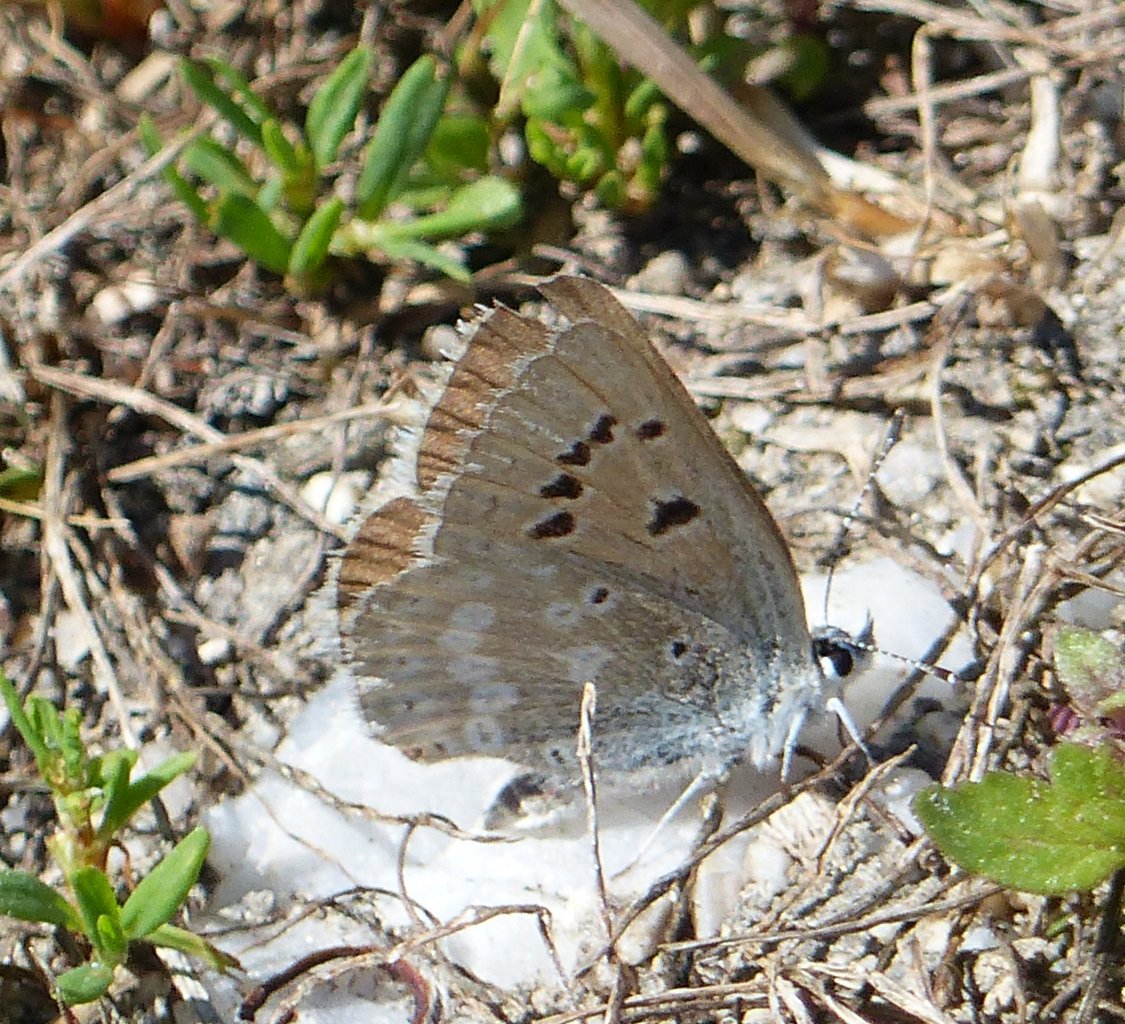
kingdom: Animalia
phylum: Arthropoda
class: Insecta
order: Lepidoptera
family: Lycaenidae
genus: Icaricia
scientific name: Icaricia icarioides
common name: Boisduval's Blue
